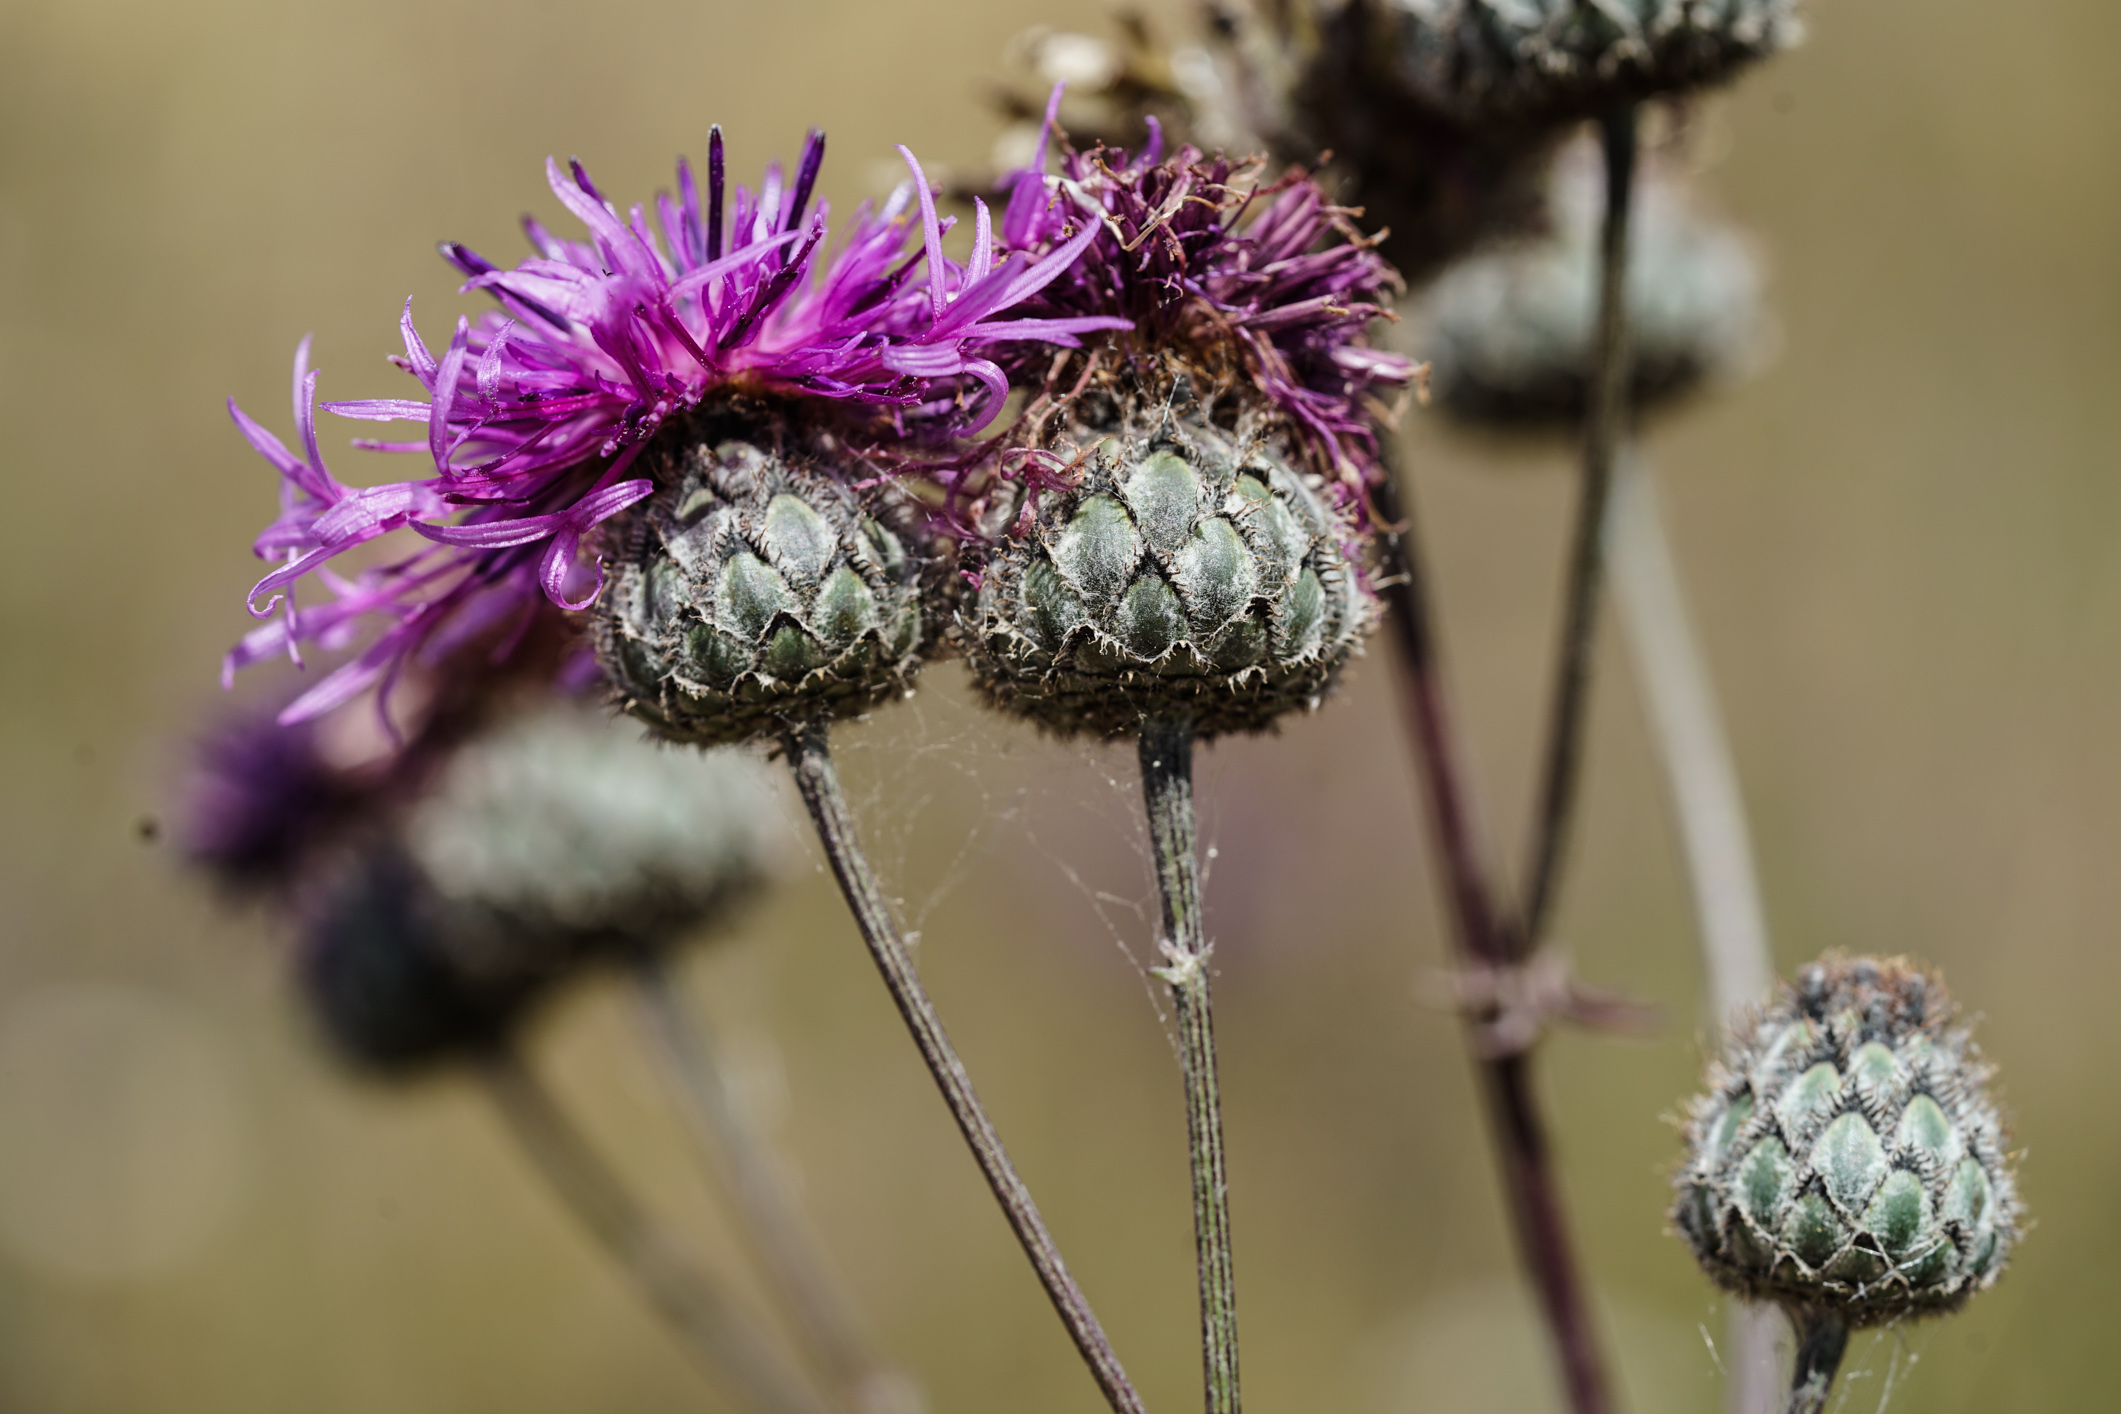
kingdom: Plantae
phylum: Tracheophyta
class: Magnoliopsida
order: Asterales
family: Asteraceae
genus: Centaurea
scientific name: Centaurea scabiosa
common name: Greater knapweed
